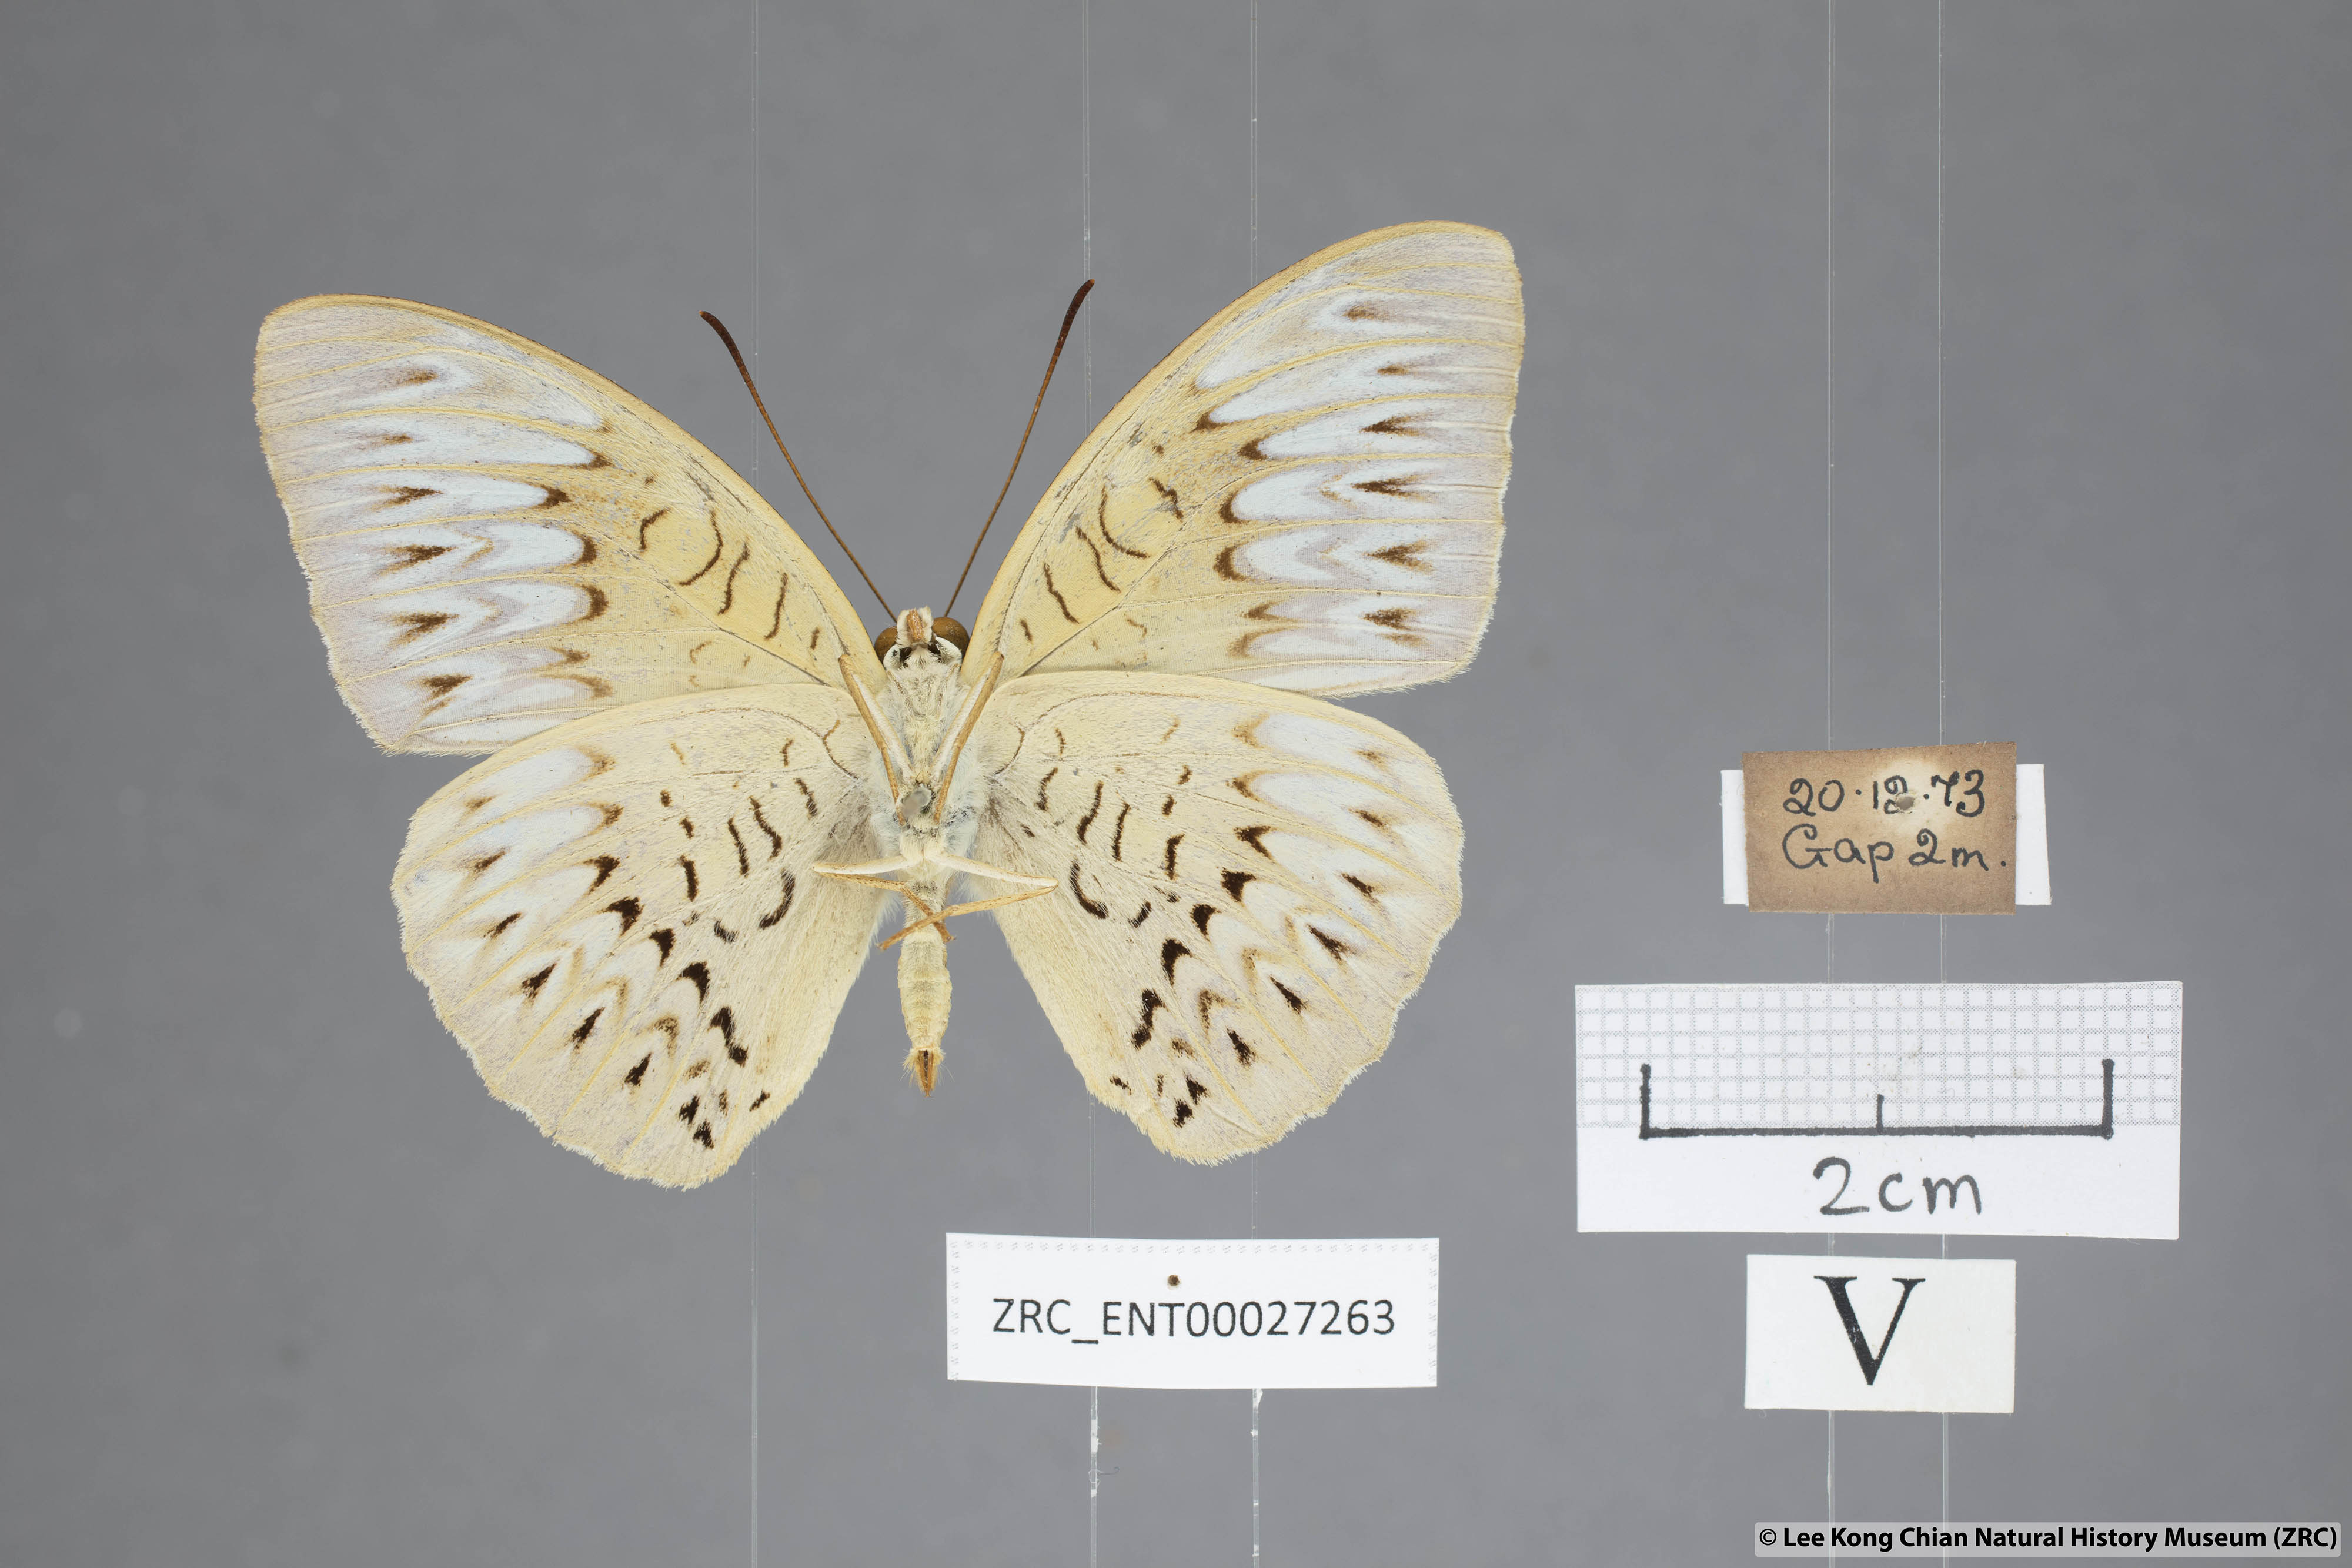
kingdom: Animalia
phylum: Arthropoda
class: Insecta
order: Lepidoptera
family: Nymphalidae
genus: Tanaecia
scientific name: Tanaecia aruna
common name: Short-banded viscount
